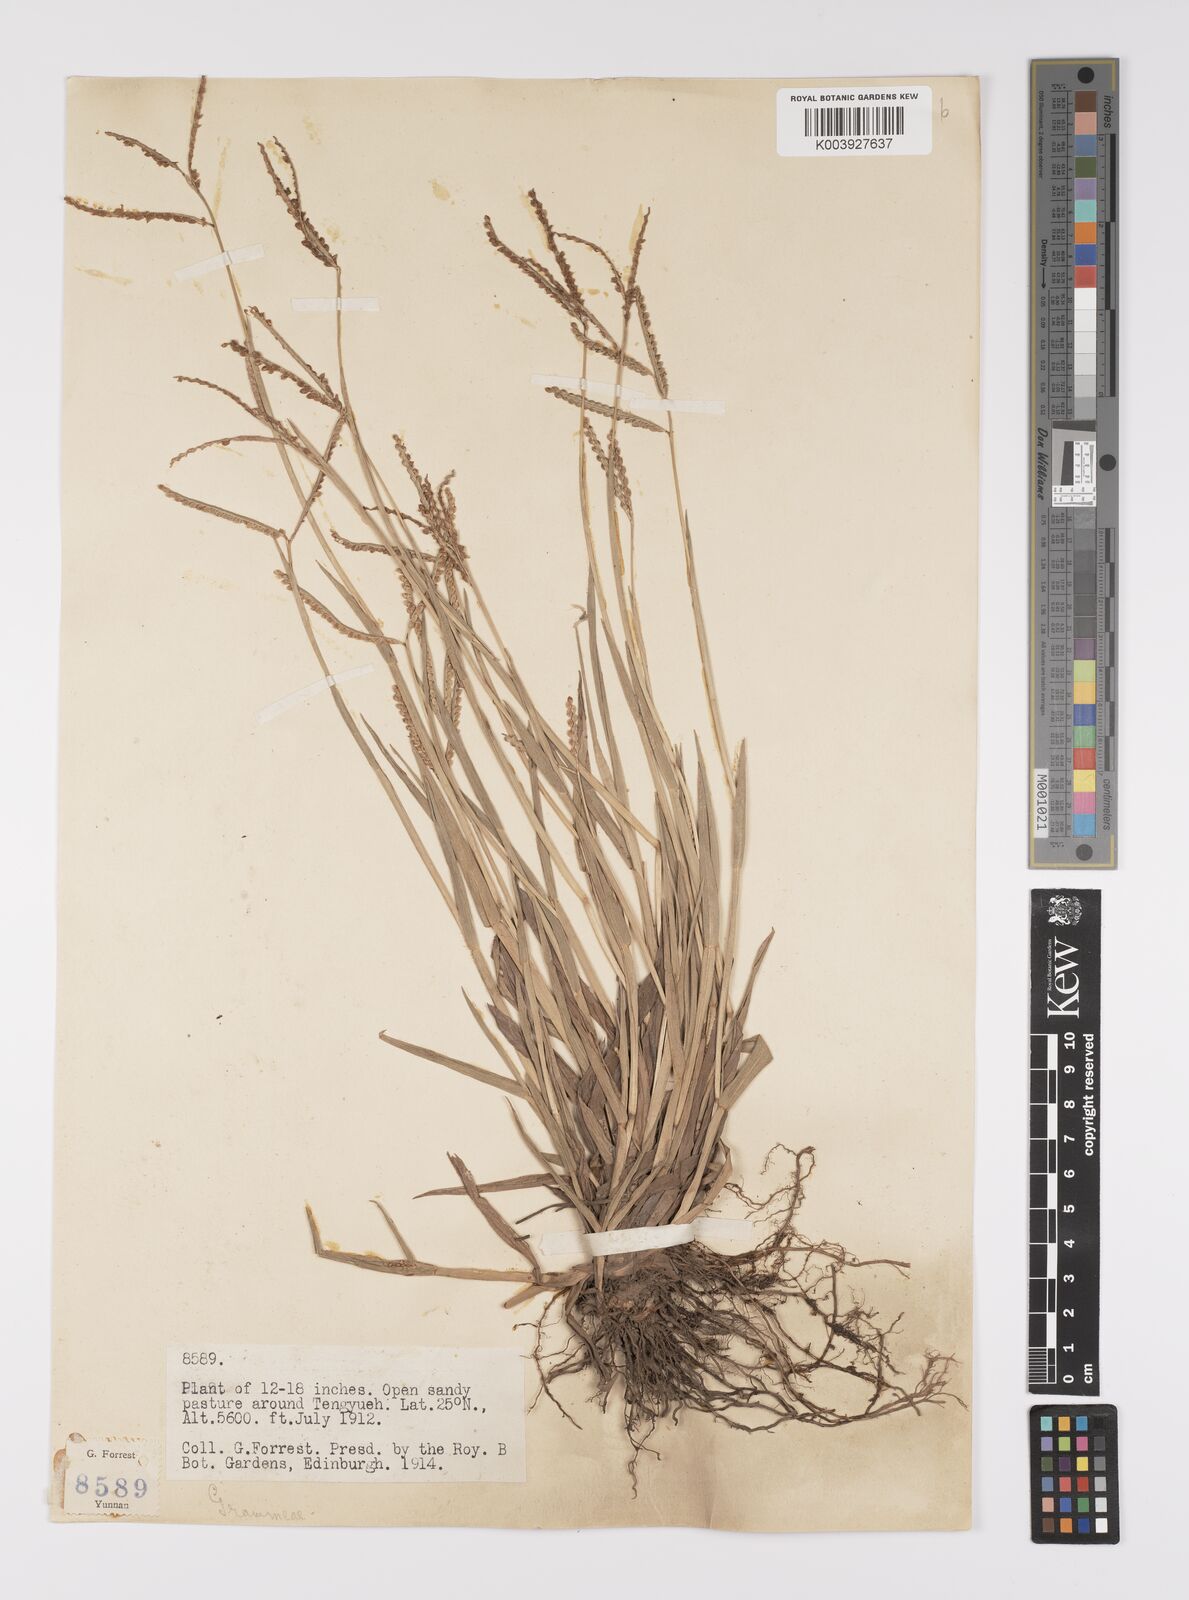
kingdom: Plantae
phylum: Tracheophyta
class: Liliopsida
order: Poales
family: Poaceae
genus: Paspalum
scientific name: Paspalum orbiculare
